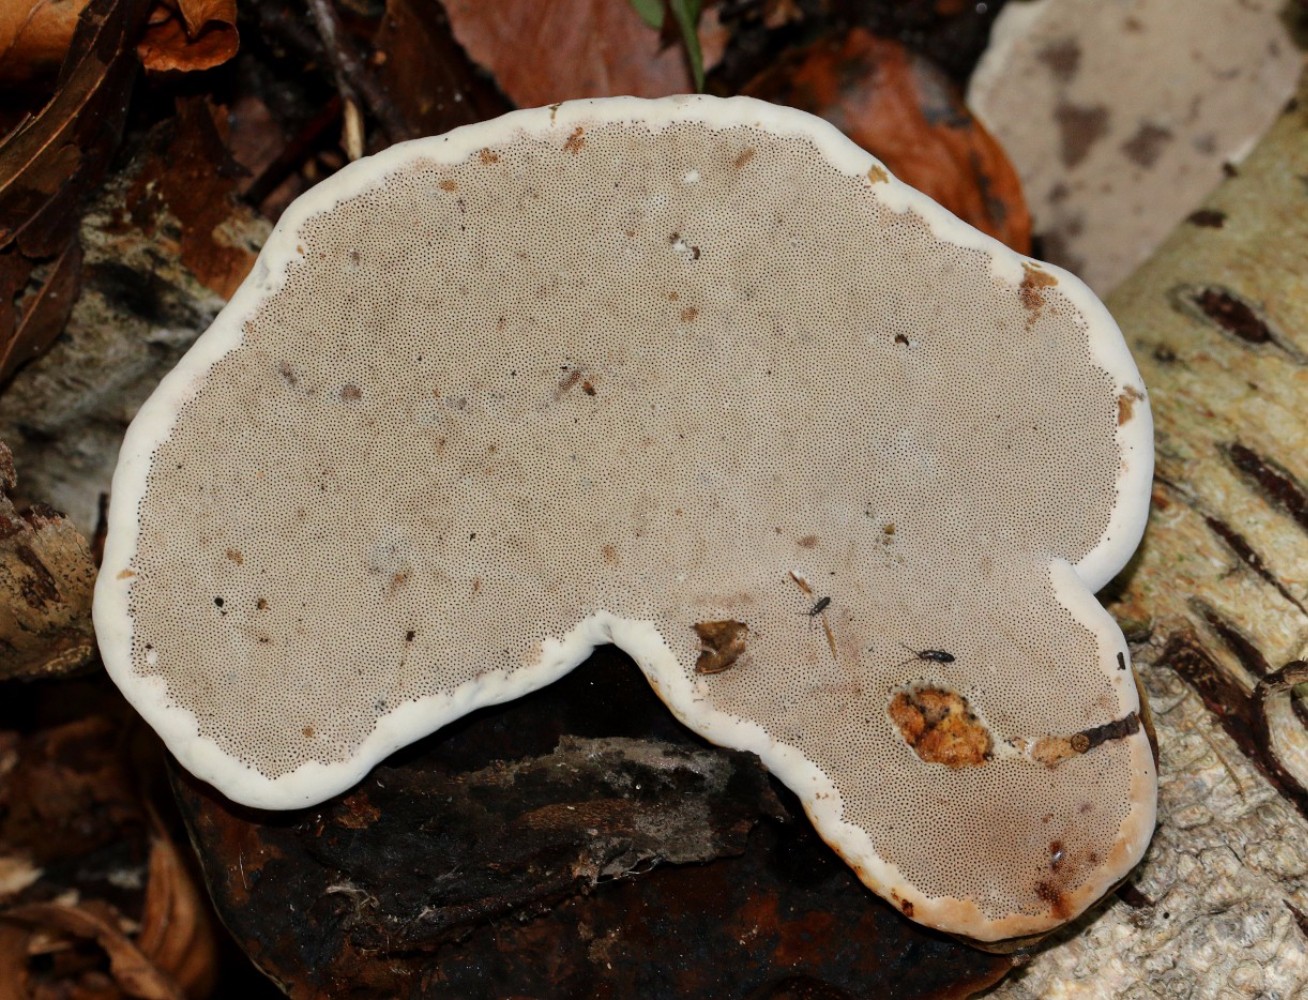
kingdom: Fungi
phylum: Basidiomycota
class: Agaricomycetes
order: Polyporales
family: Polyporaceae
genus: Fomes
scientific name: Fomes fomentarius
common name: tøndersvamp
